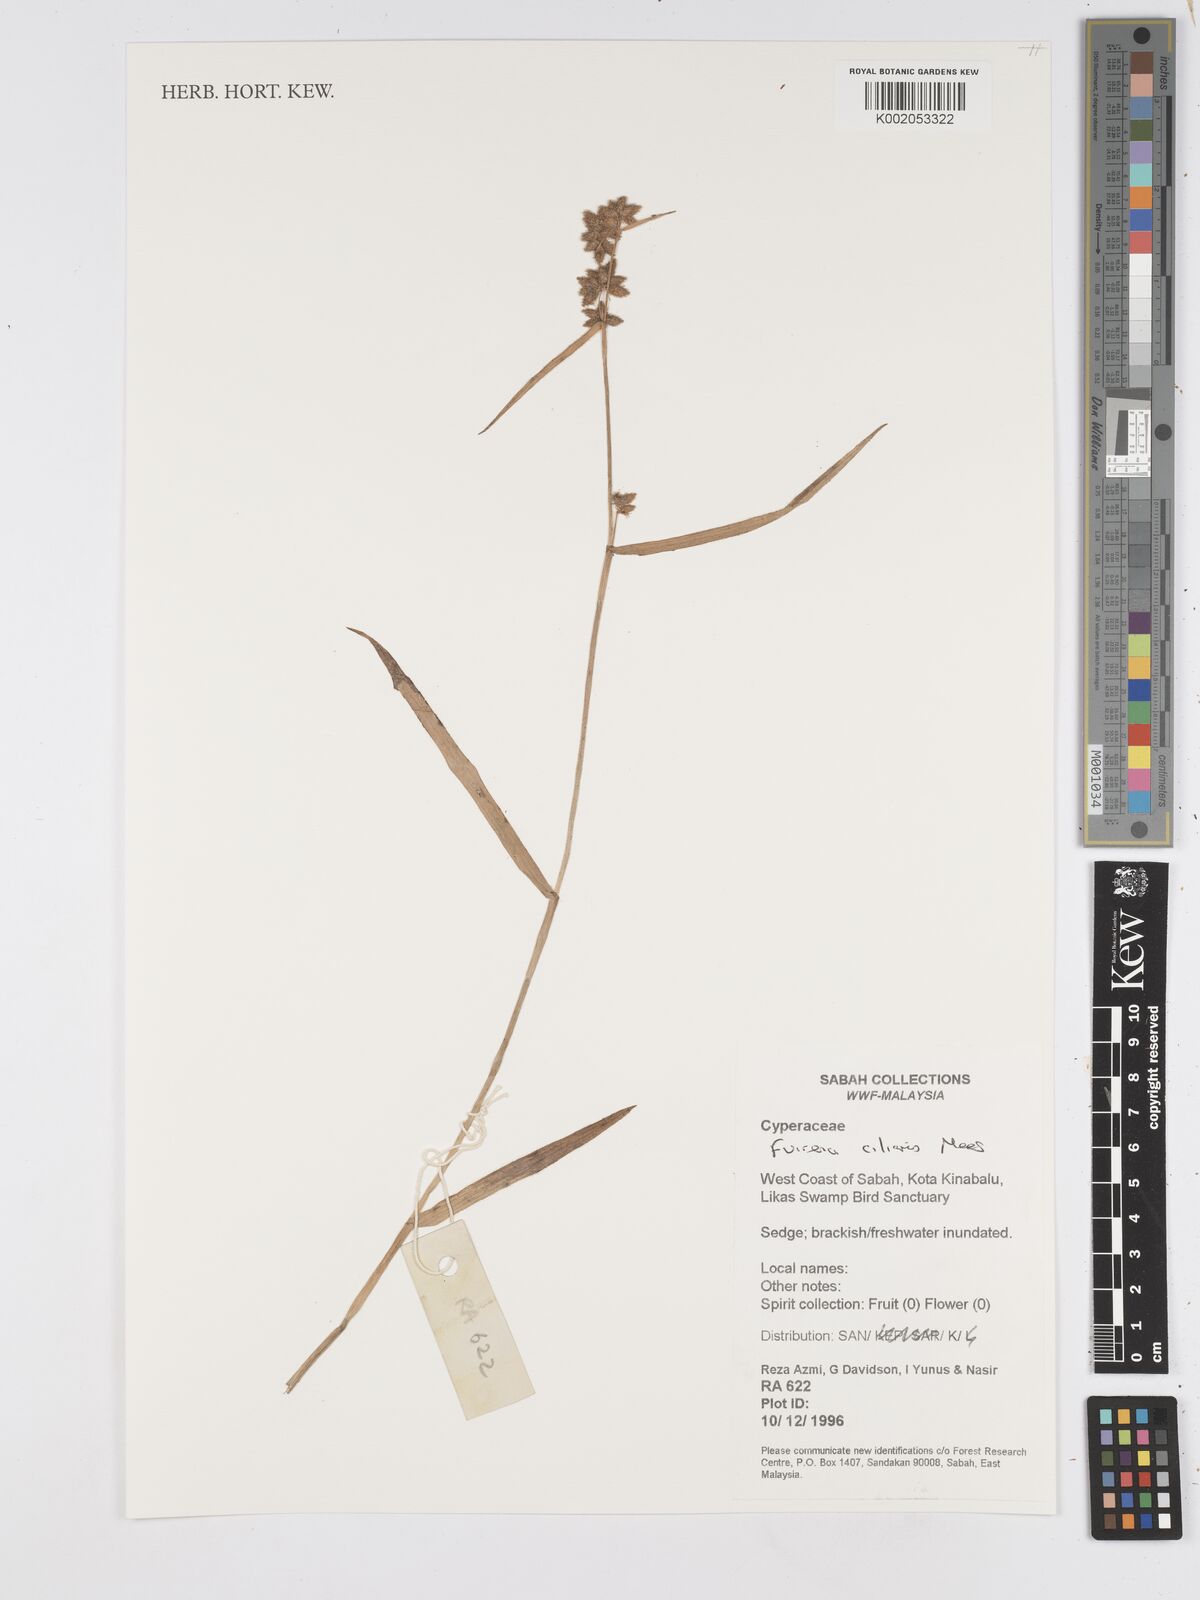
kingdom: Plantae
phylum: Tracheophyta
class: Liliopsida
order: Poales
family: Cyperaceae
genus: Fuirena
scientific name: Fuirena ciliaris
